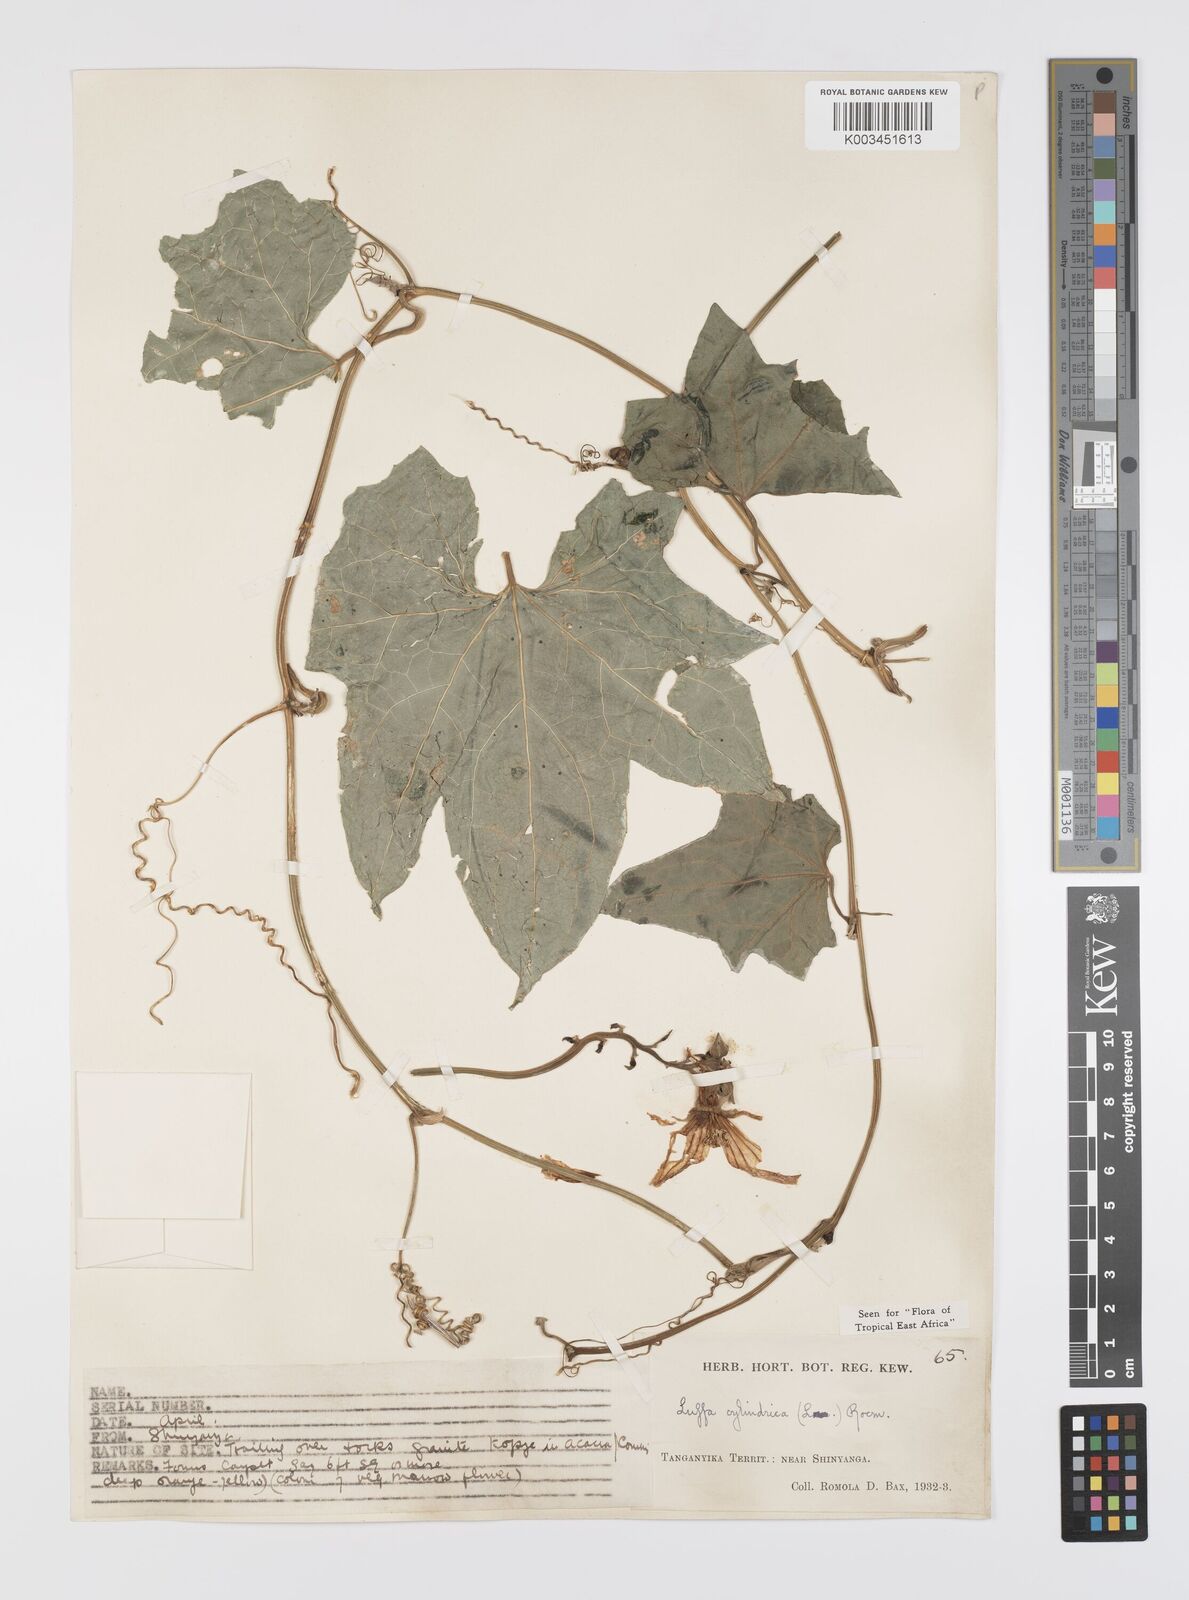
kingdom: Plantae
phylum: Tracheophyta
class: Magnoliopsida
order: Cucurbitales
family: Cucurbitaceae
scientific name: Cucurbitaceae
